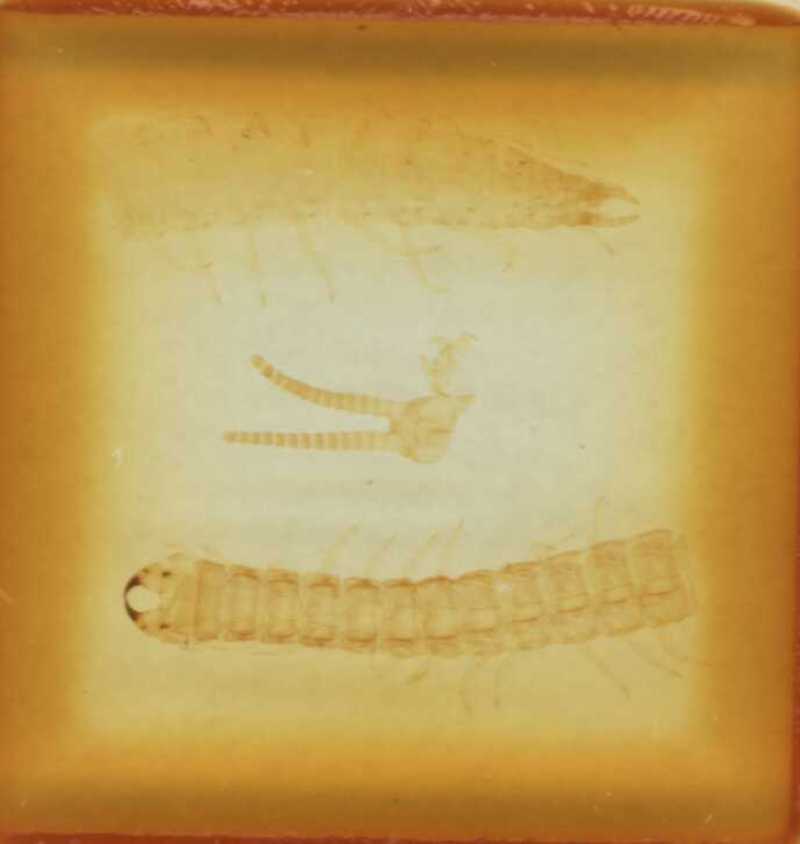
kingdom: Animalia
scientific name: Animalia
